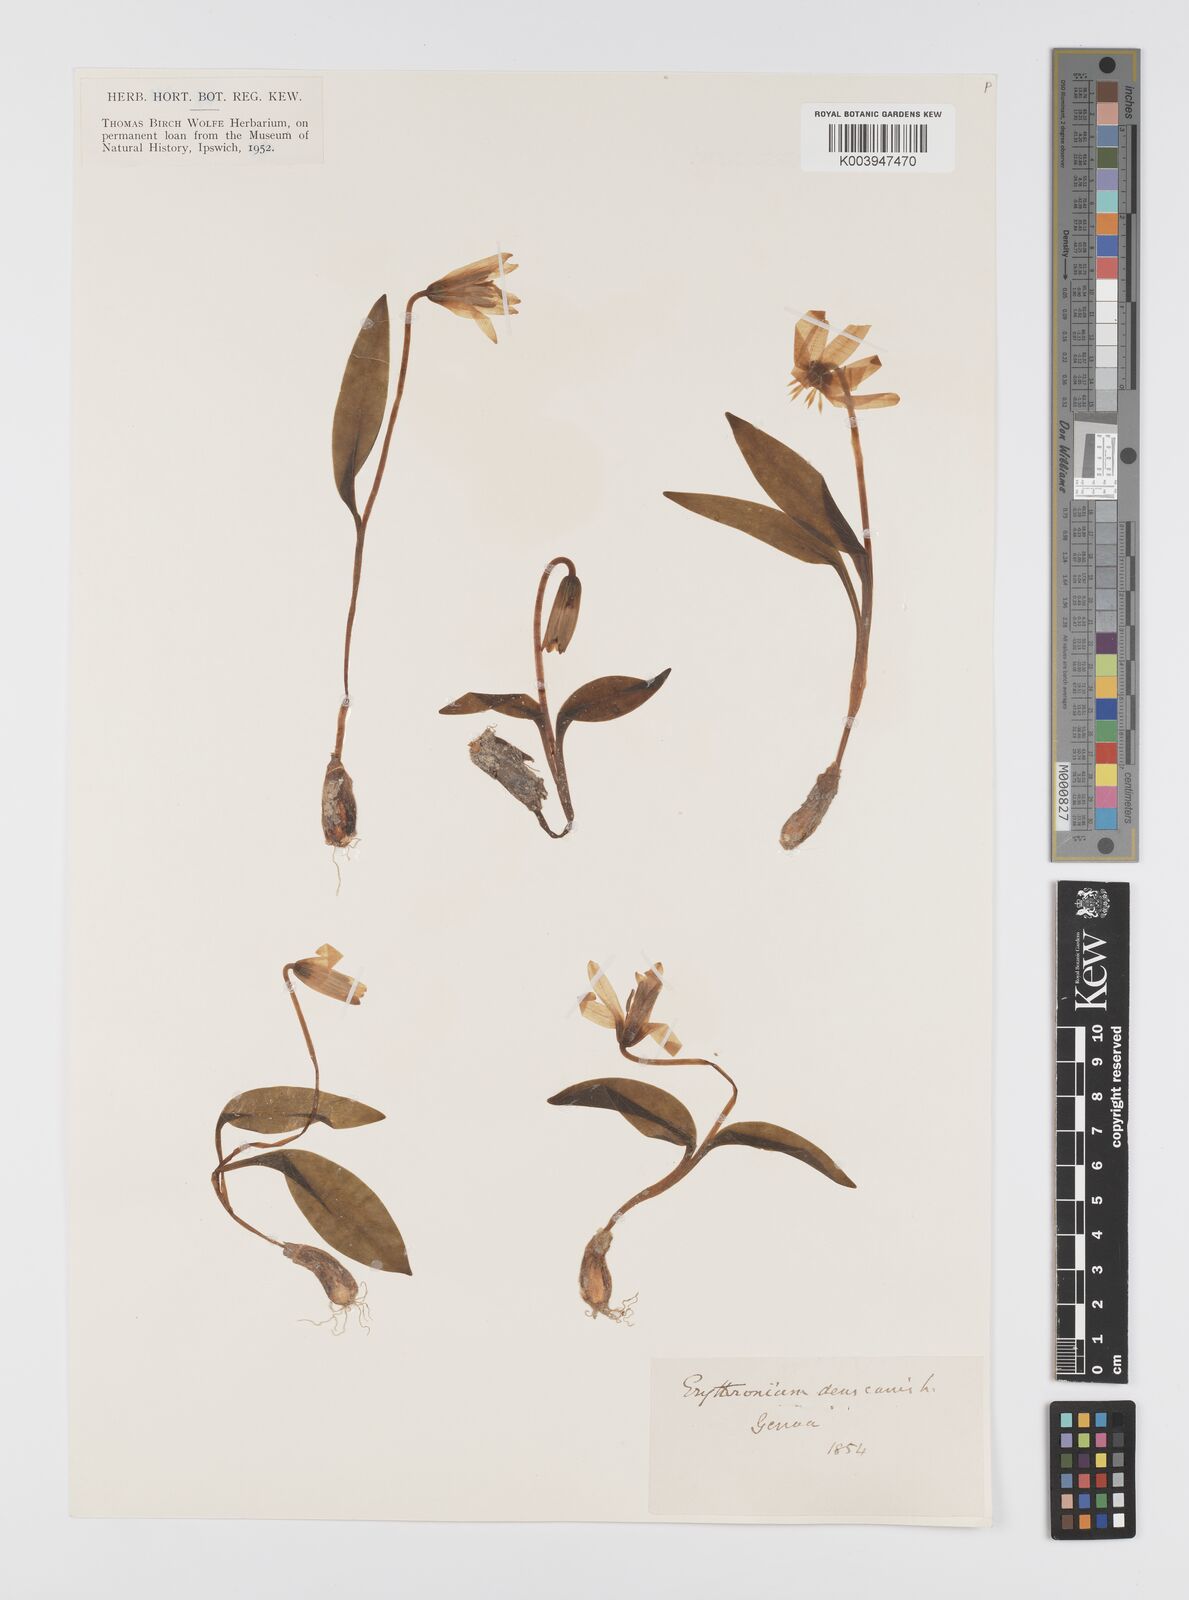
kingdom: Plantae
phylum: Tracheophyta
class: Liliopsida
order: Liliales
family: Liliaceae
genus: Erythronium
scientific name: Erythronium dens-canis
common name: Dog's-tooth-violet
